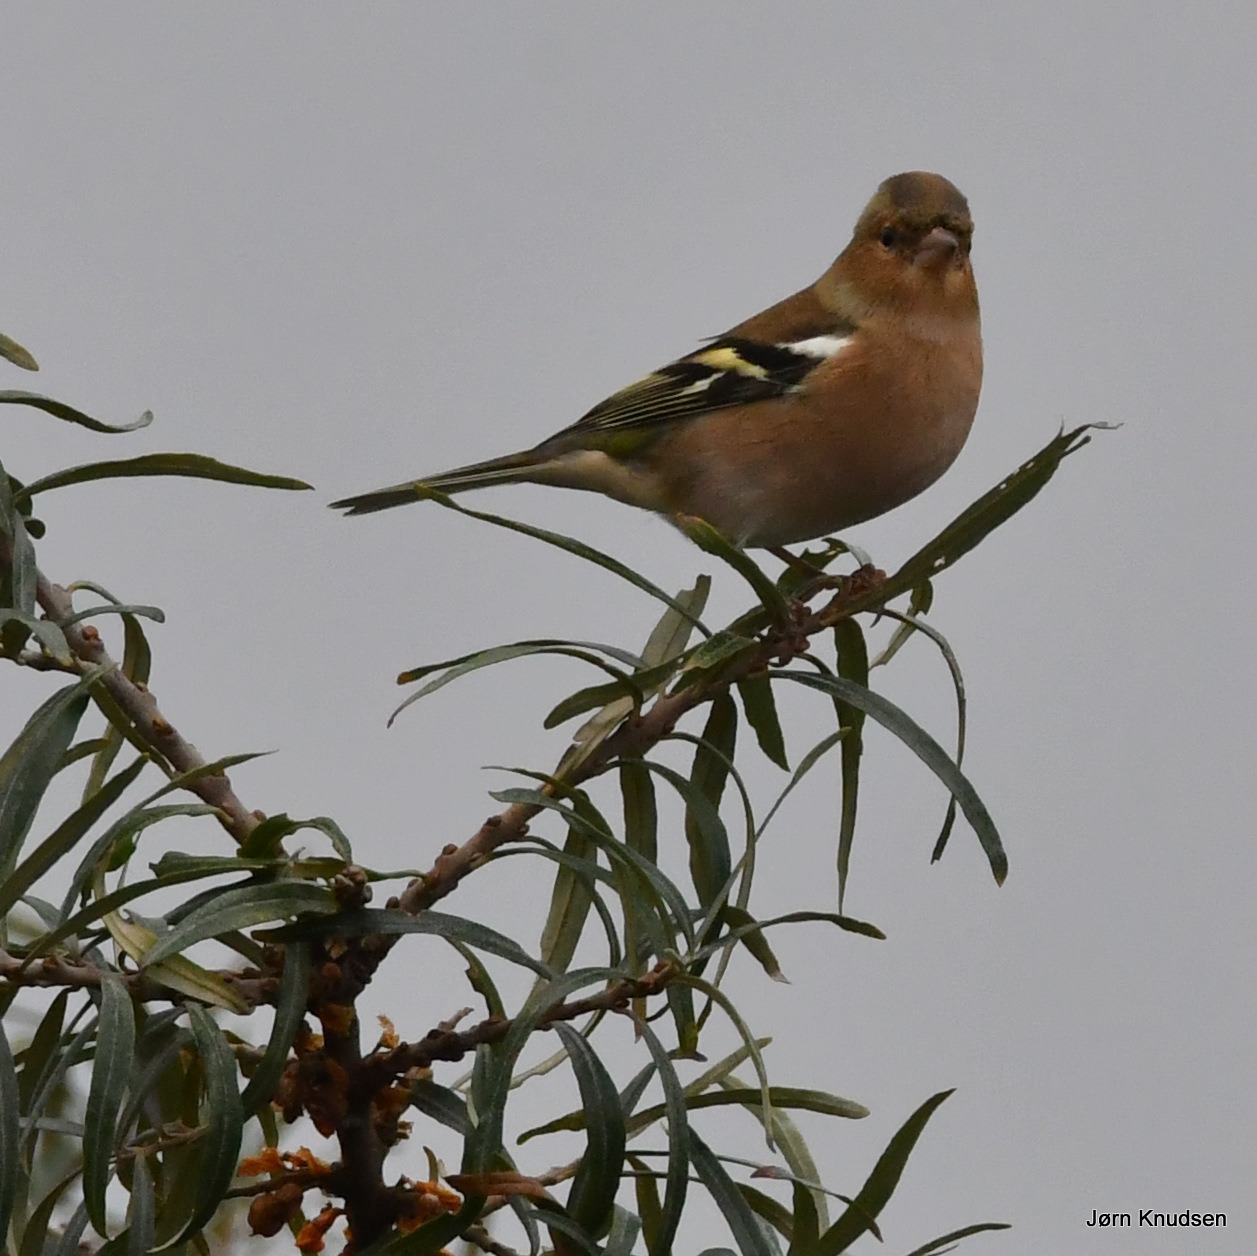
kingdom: Animalia
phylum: Chordata
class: Aves
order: Passeriformes
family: Fringillidae
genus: Fringilla
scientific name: Fringilla coelebs
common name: Bogfinke
